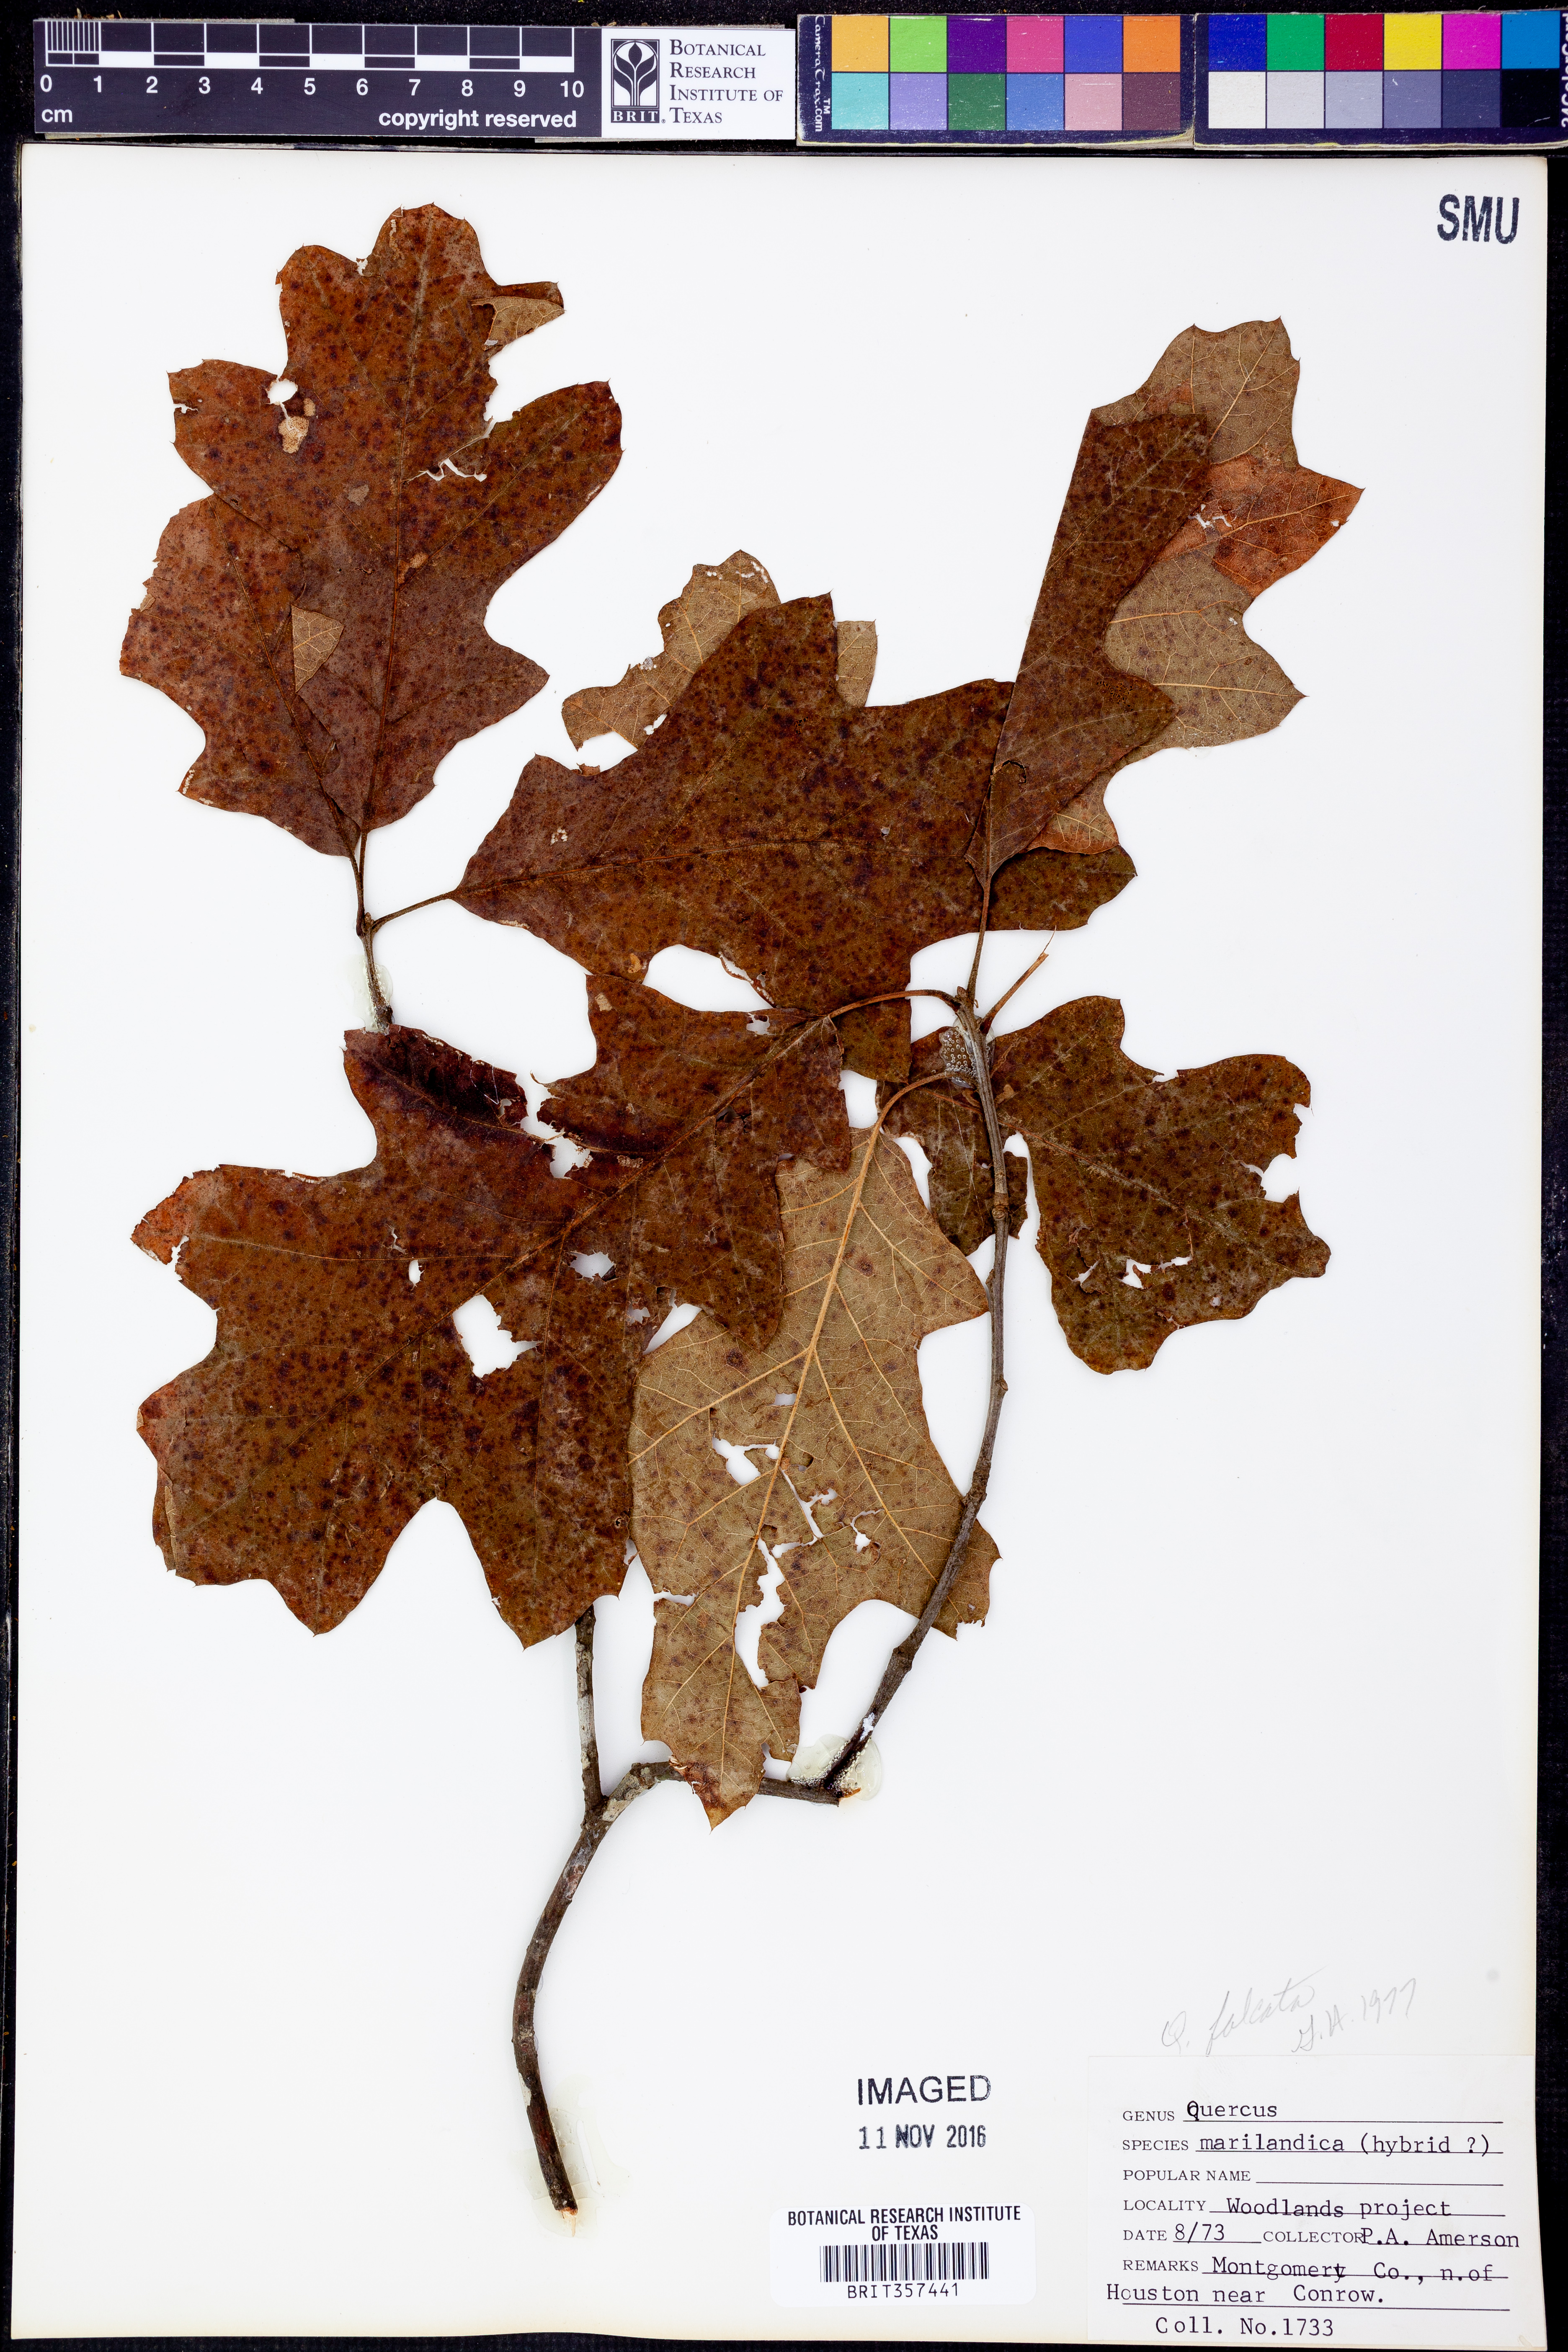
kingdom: Plantae
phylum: Tracheophyta
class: Magnoliopsida
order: Fagales
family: Fagaceae
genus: Quercus
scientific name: Quercus falcata
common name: Southern red oak
